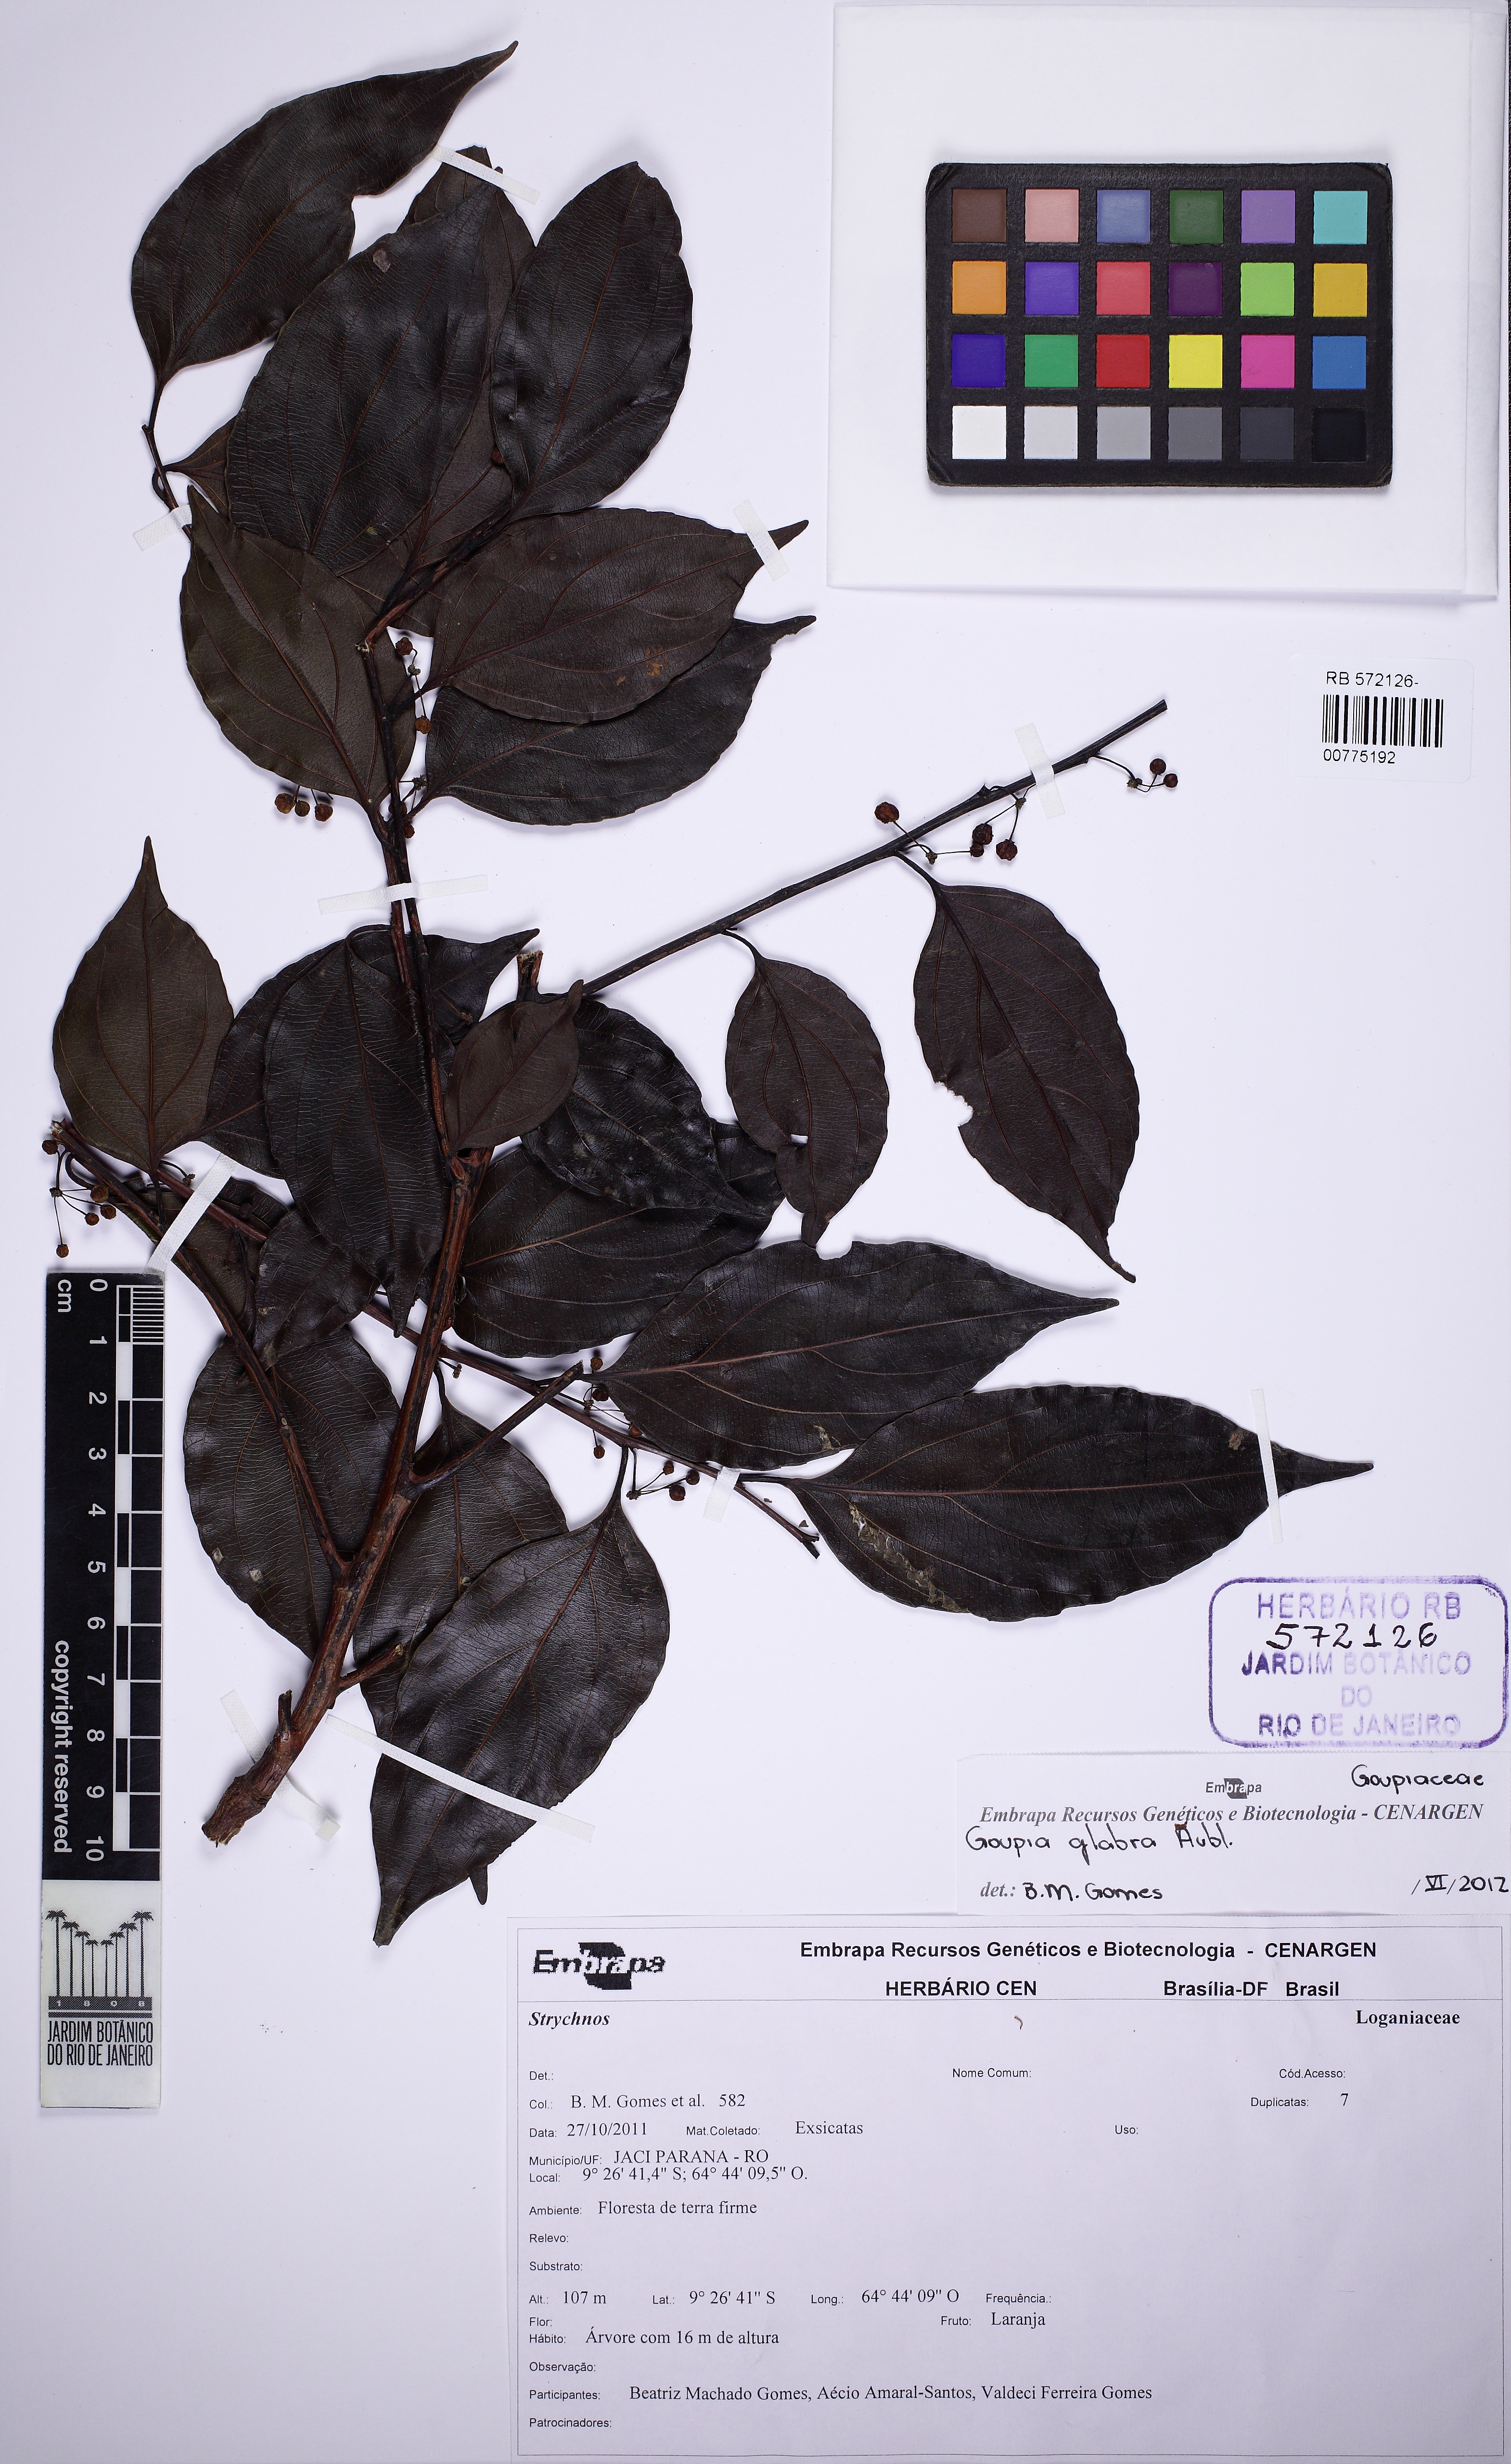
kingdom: Plantae
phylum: Tracheophyta
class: Magnoliopsida
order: Malpighiales
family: Goupiaceae
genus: Goupia
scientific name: Goupia glabra
